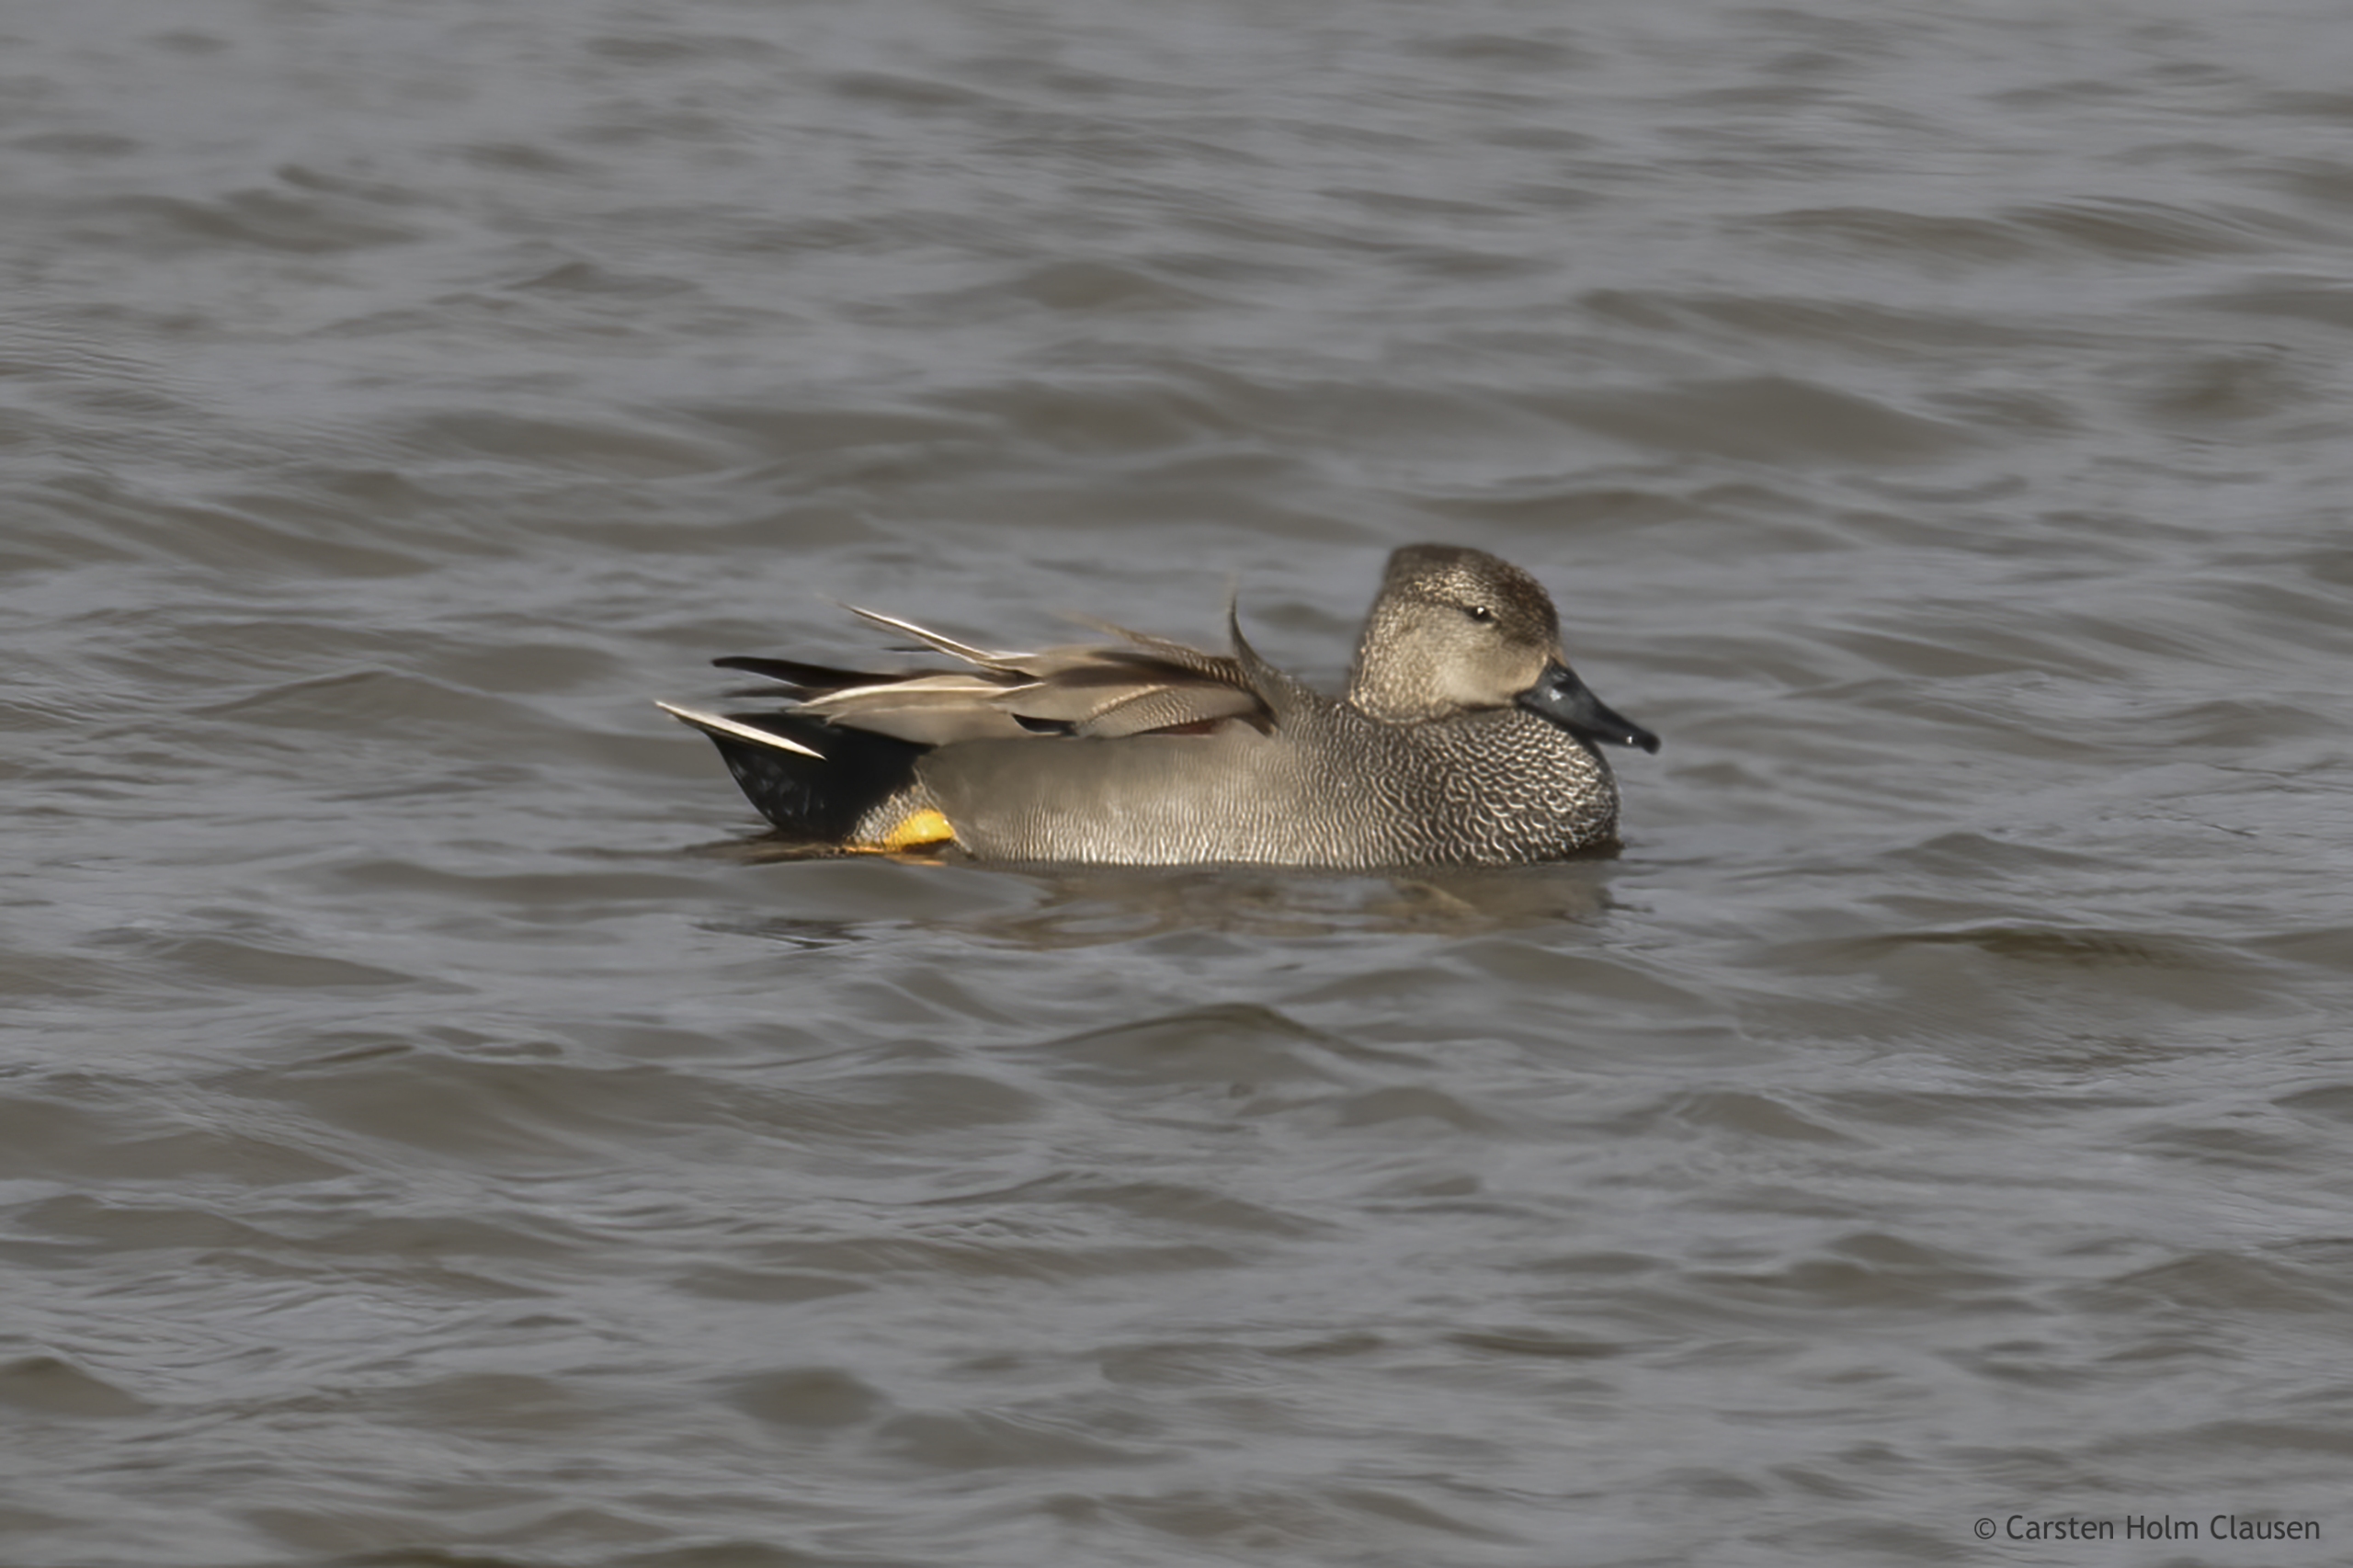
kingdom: Animalia
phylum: Chordata
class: Aves
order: Anseriformes
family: Anatidae
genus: Mareca
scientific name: Mareca strepera
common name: Knarand
